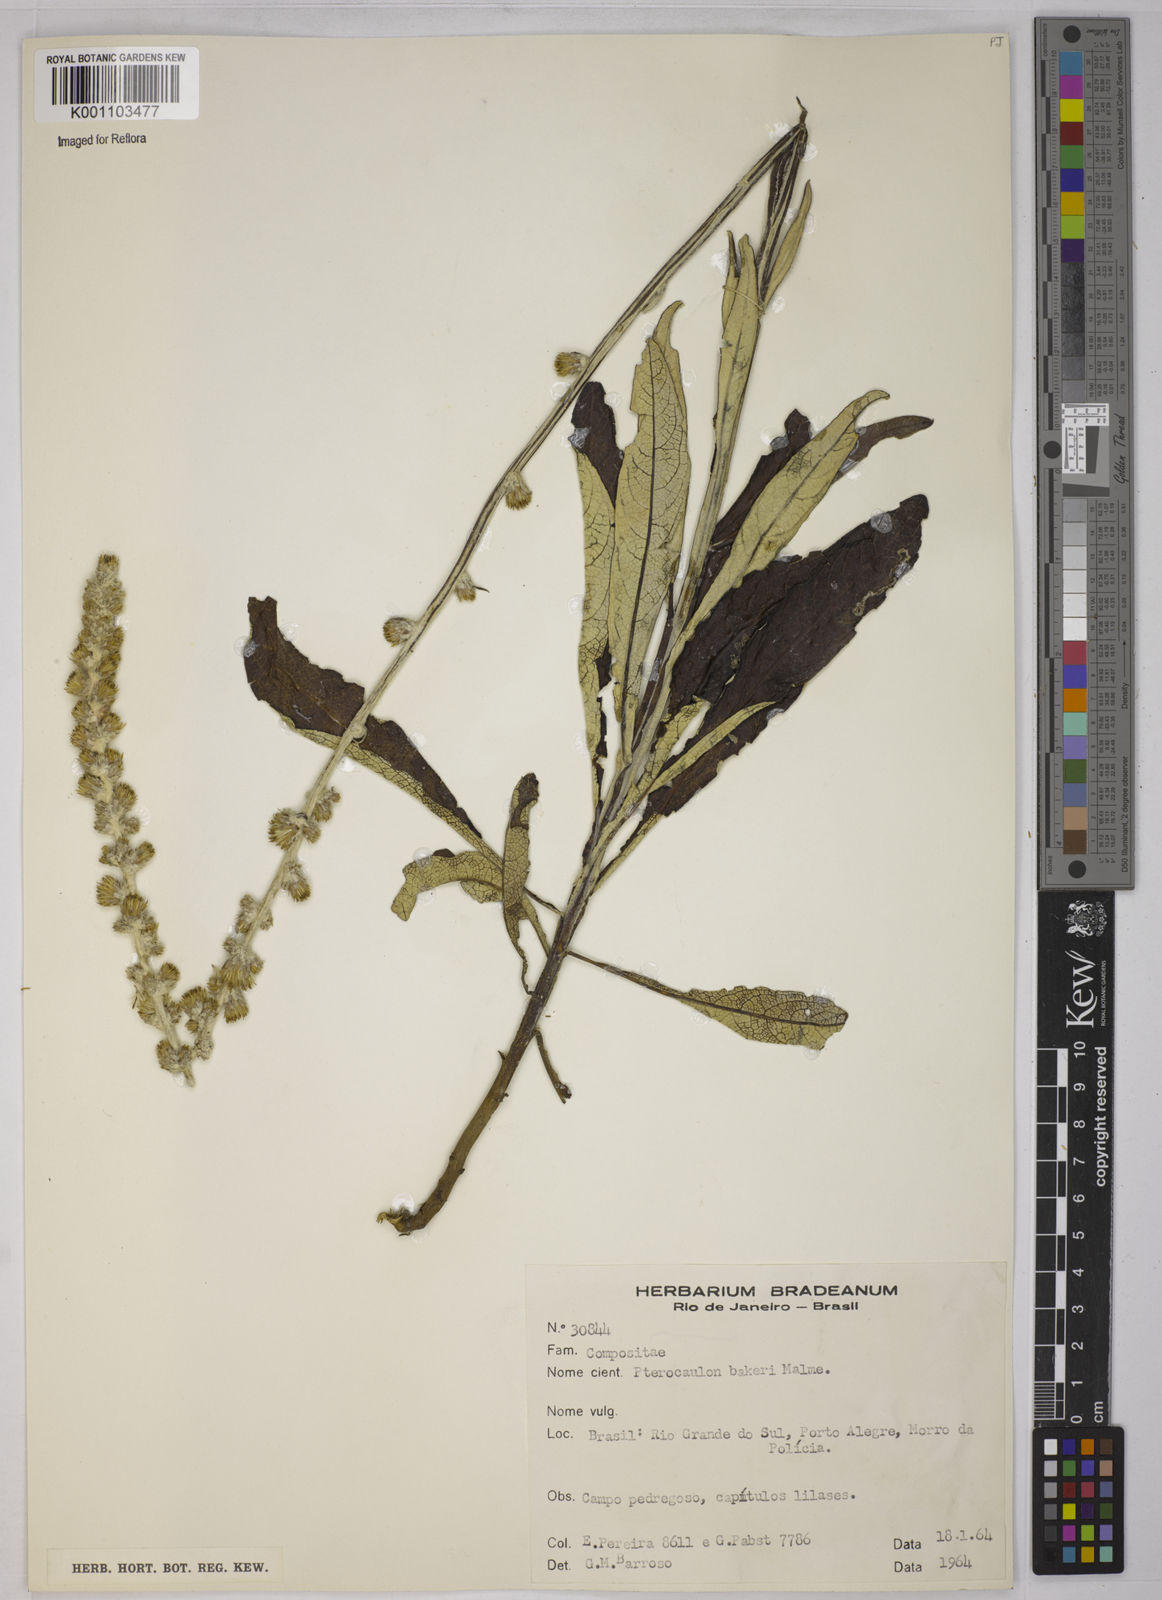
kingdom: Plantae
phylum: Tracheophyta
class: Magnoliopsida
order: Asterales
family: Asteraceae
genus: Pterocaulon
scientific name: Pterocaulon polypterum
